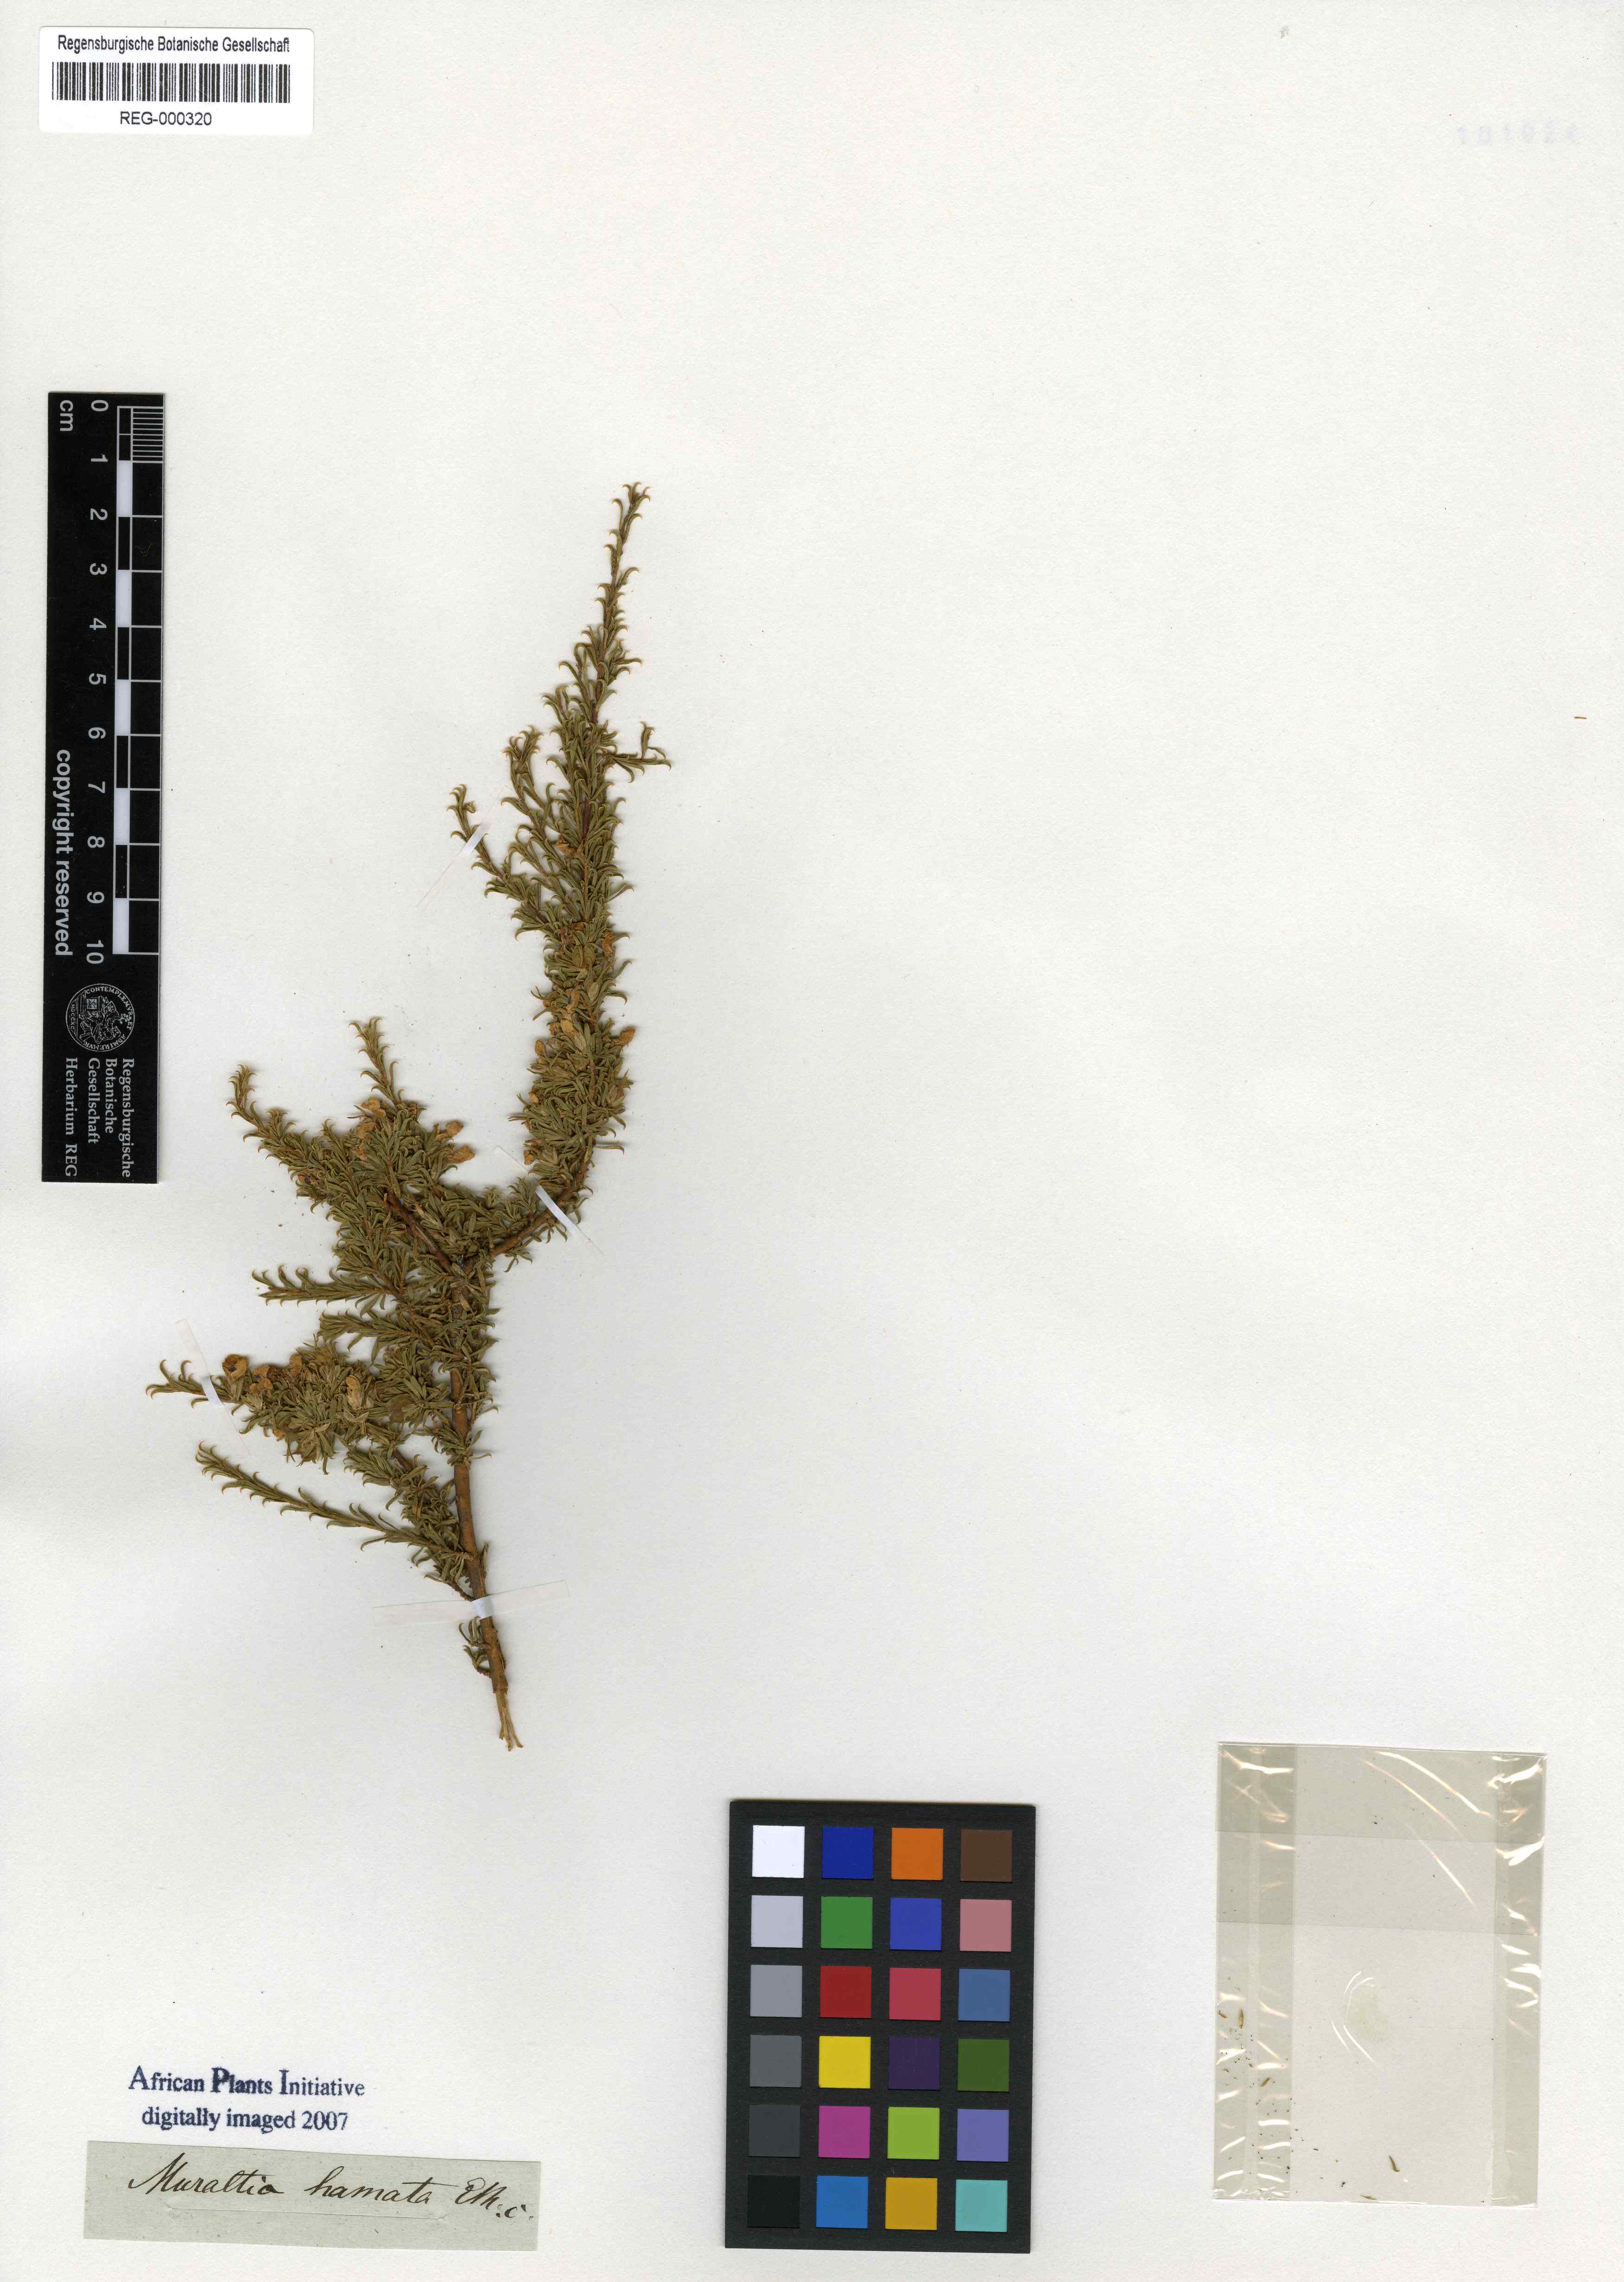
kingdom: Plantae
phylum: Tracheophyta
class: Magnoliopsida
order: Fabales
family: Polygalaceae
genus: Muraltia
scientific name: Muraltia macrocarpa
